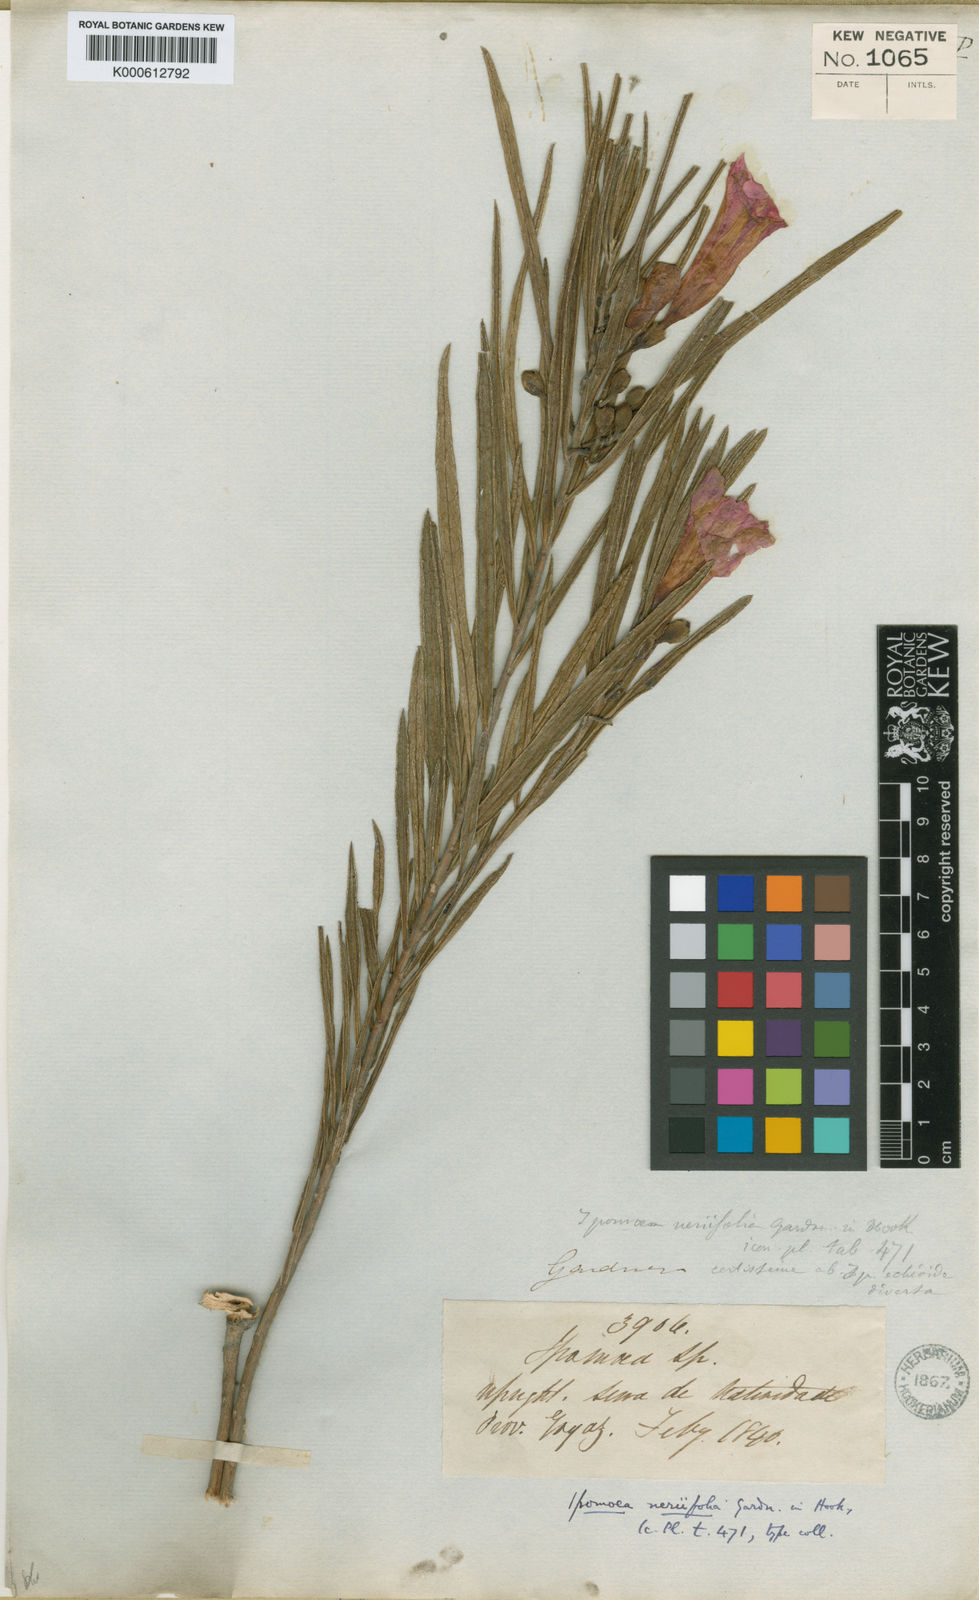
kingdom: Plantae
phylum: Tracheophyta
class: Magnoliopsida
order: Solanales
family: Convolvulaceae
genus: Ipomoea
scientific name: Ipomoea neriifolia
